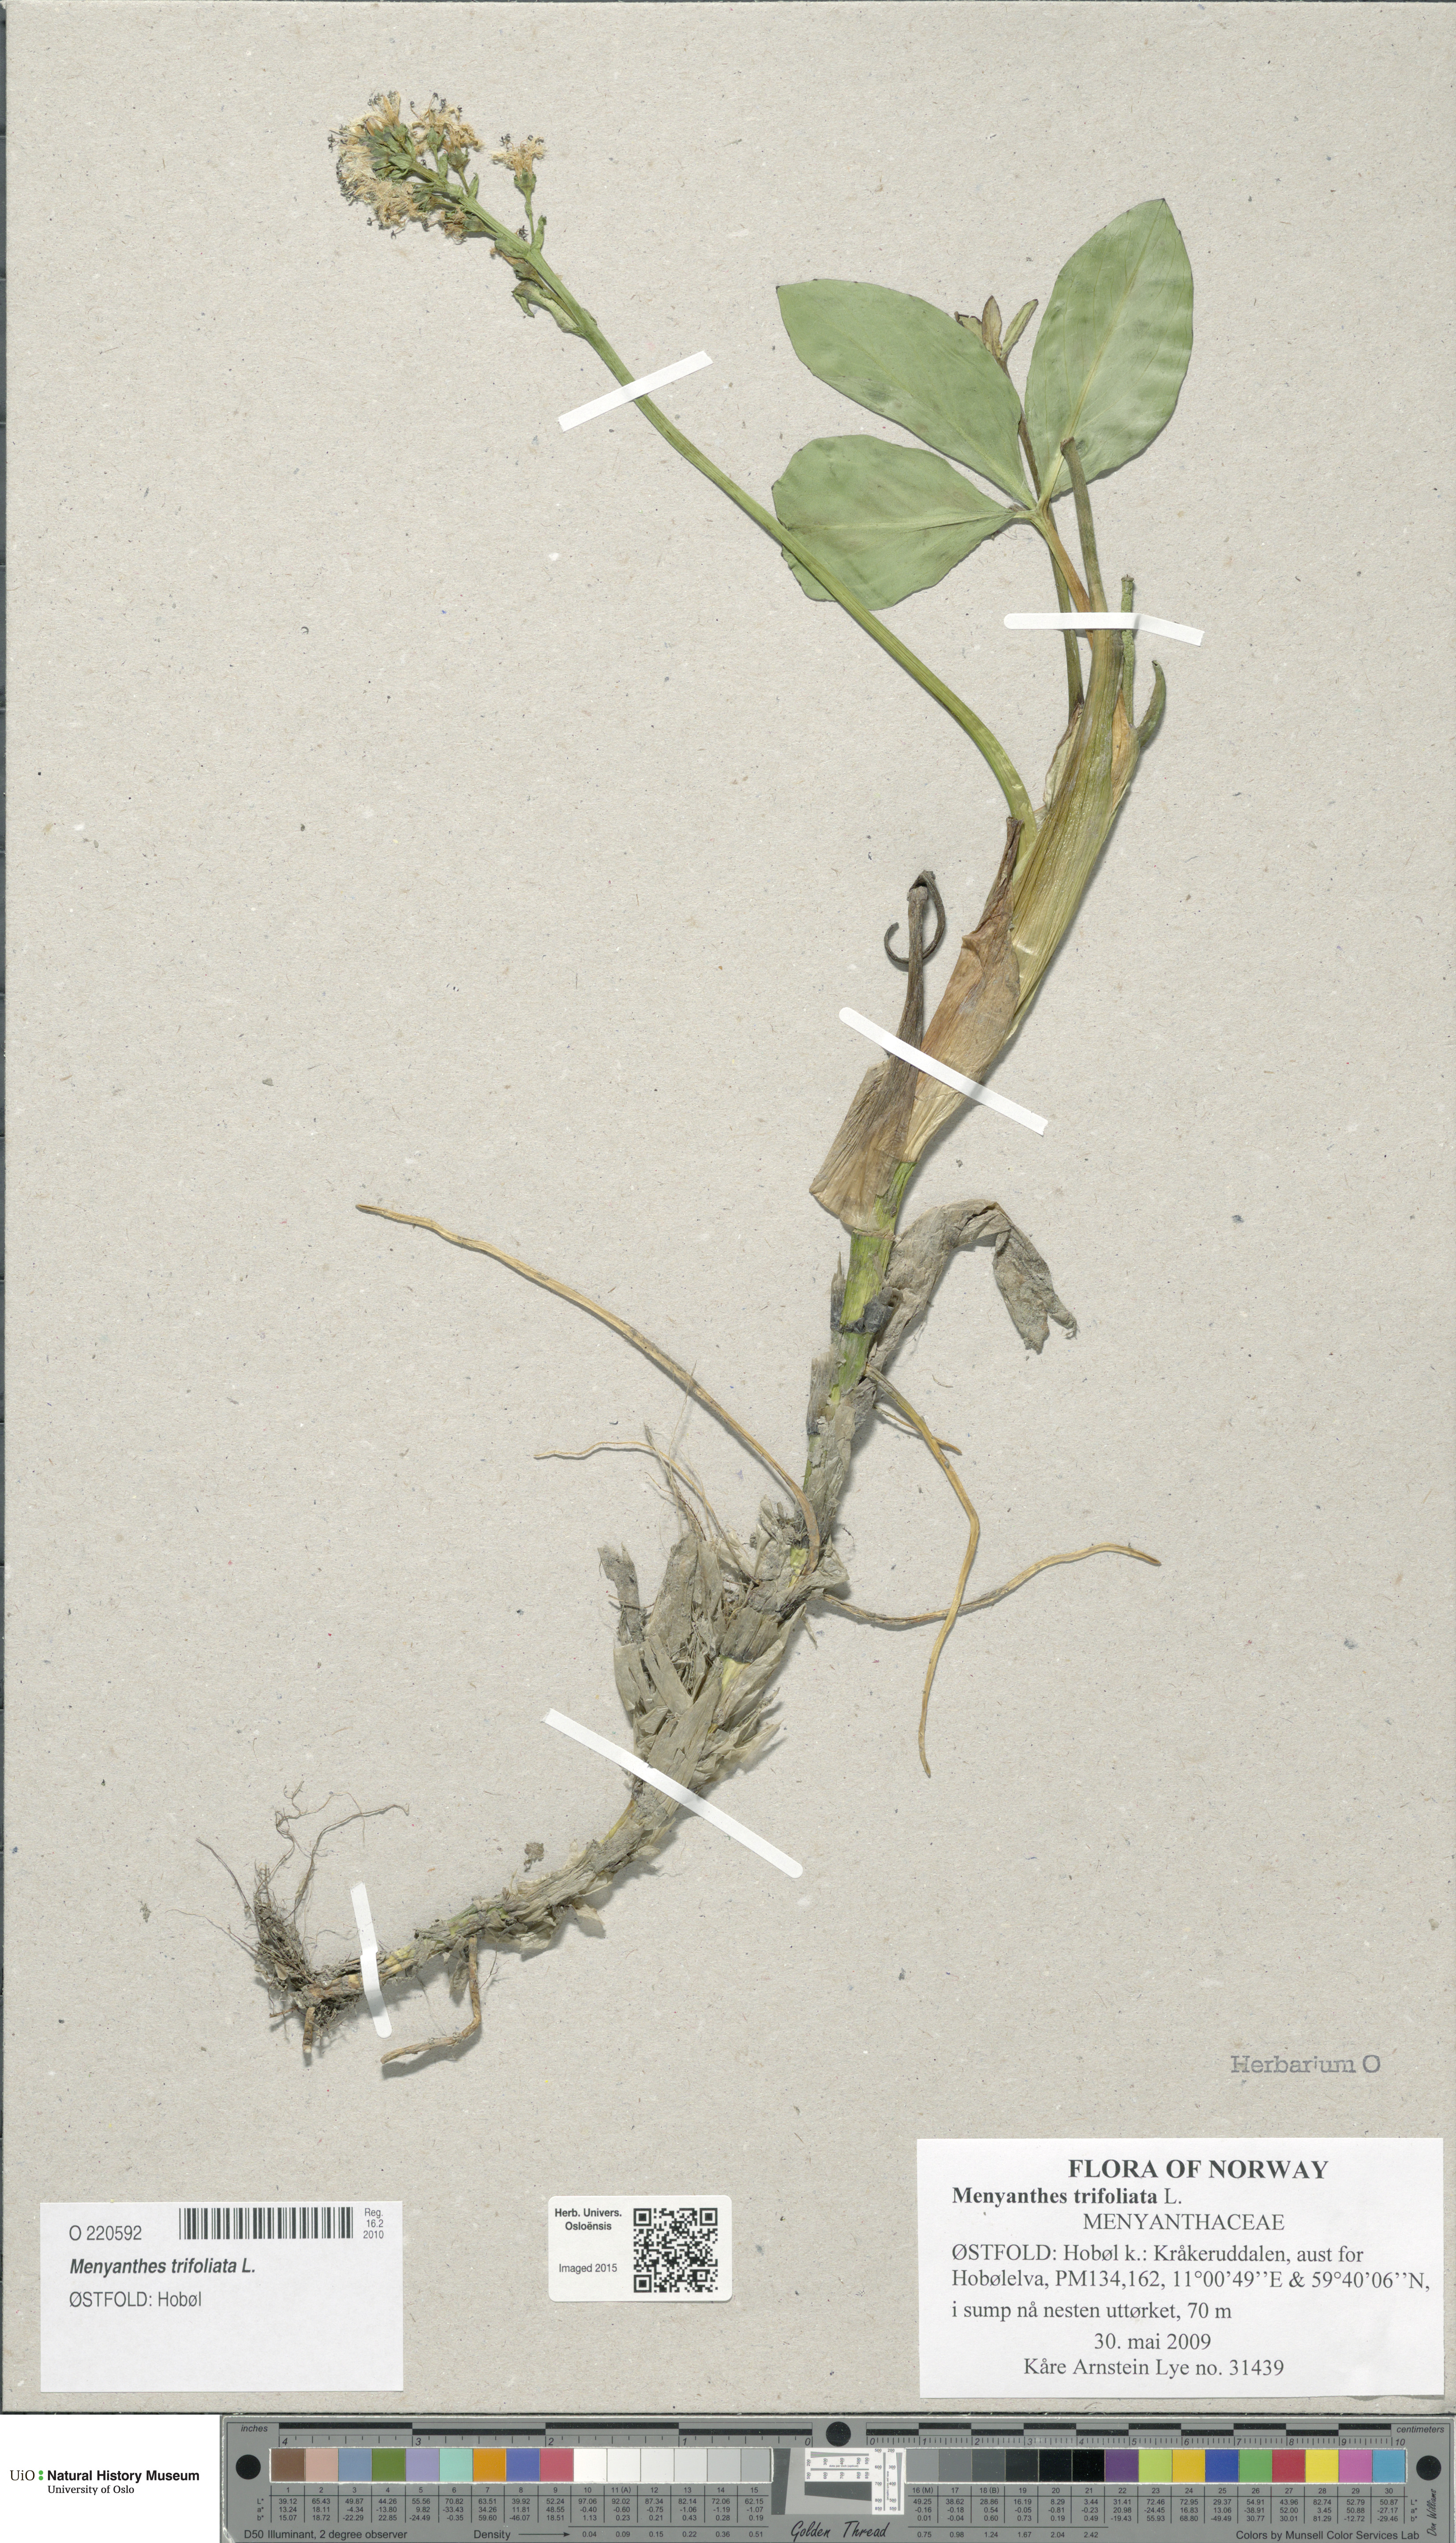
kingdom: Plantae
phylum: Tracheophyta
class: Magnoliopsida
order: Asterales
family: Menyanthaceae
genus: Menyanthes
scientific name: Menyanthes trifoliata
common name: Bogbean
